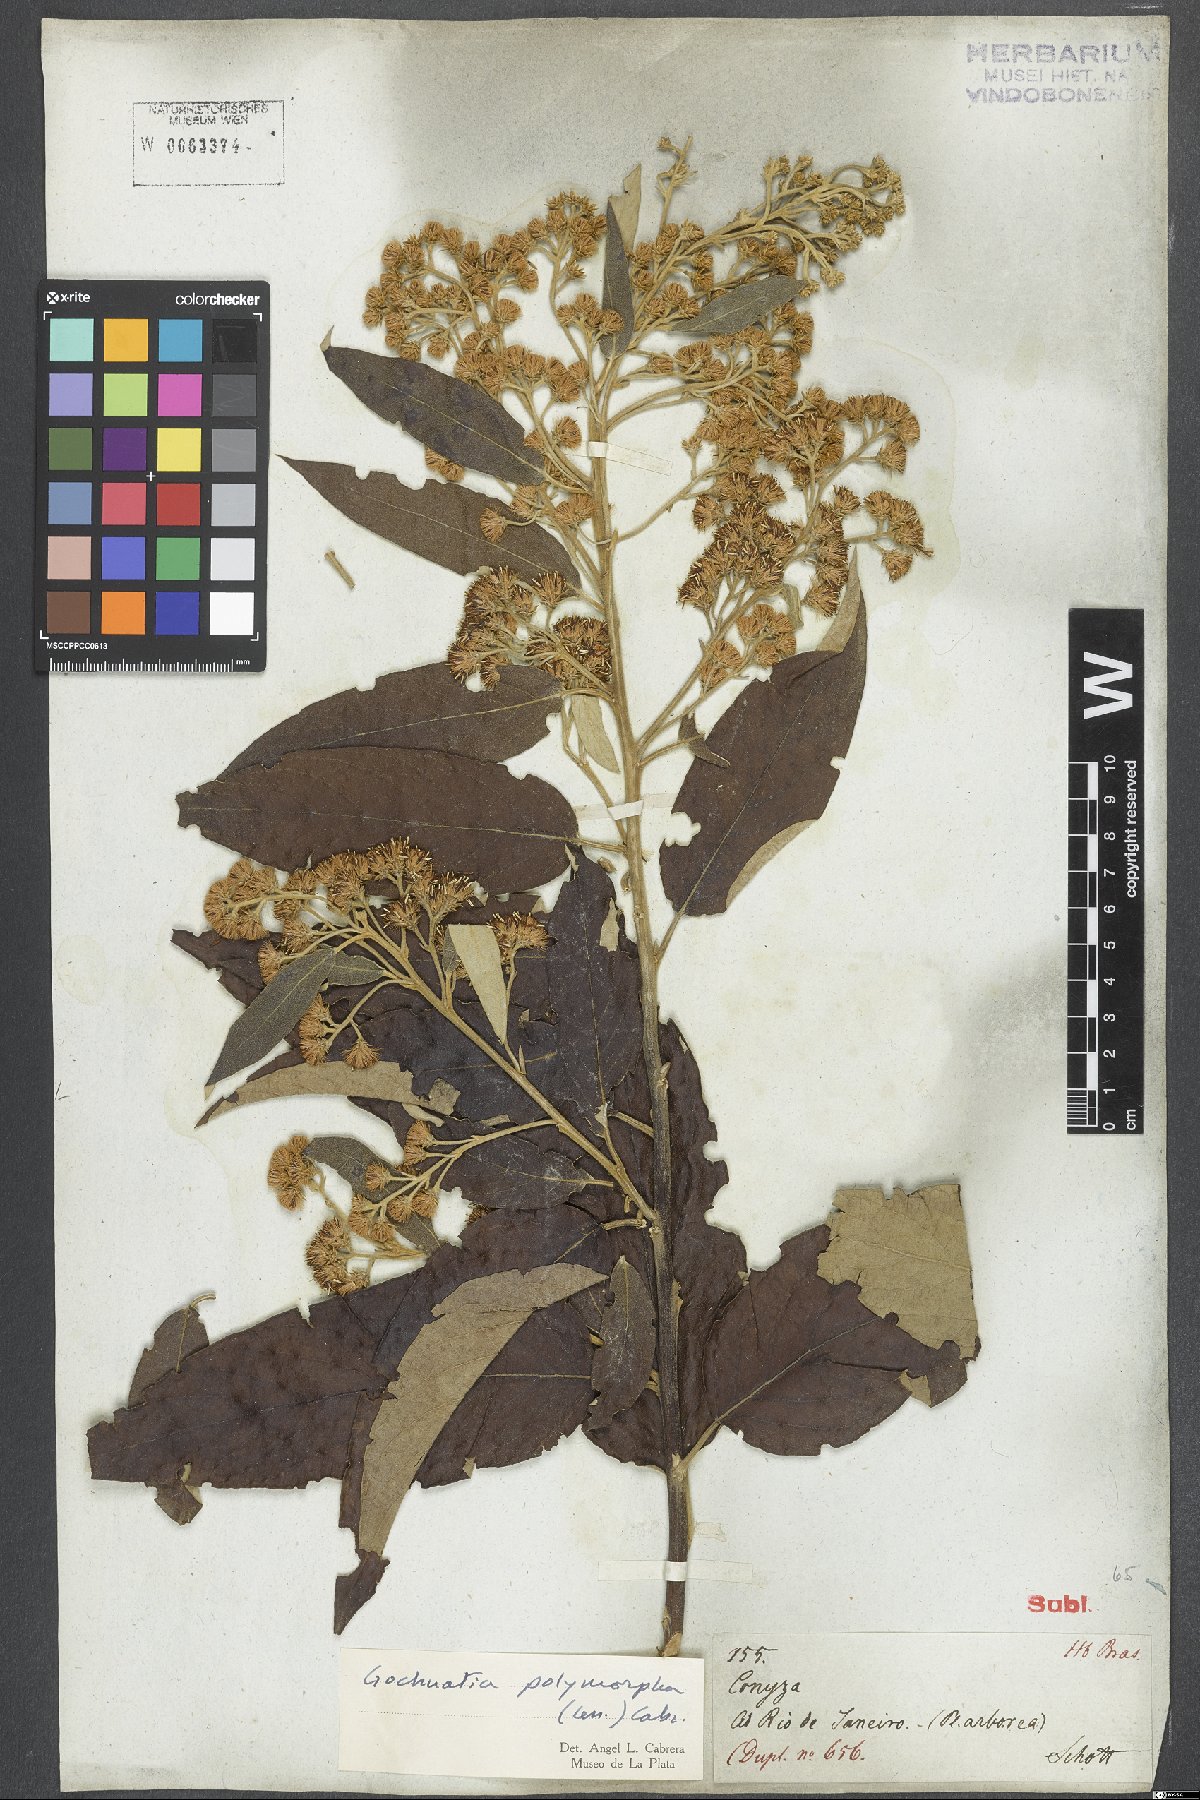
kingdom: Plantae
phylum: Tracheophyta
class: Magnoliopsida
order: Asterales
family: Asteraceae
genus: Moquiniastrum
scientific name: Moquiniastrum polymorphum
